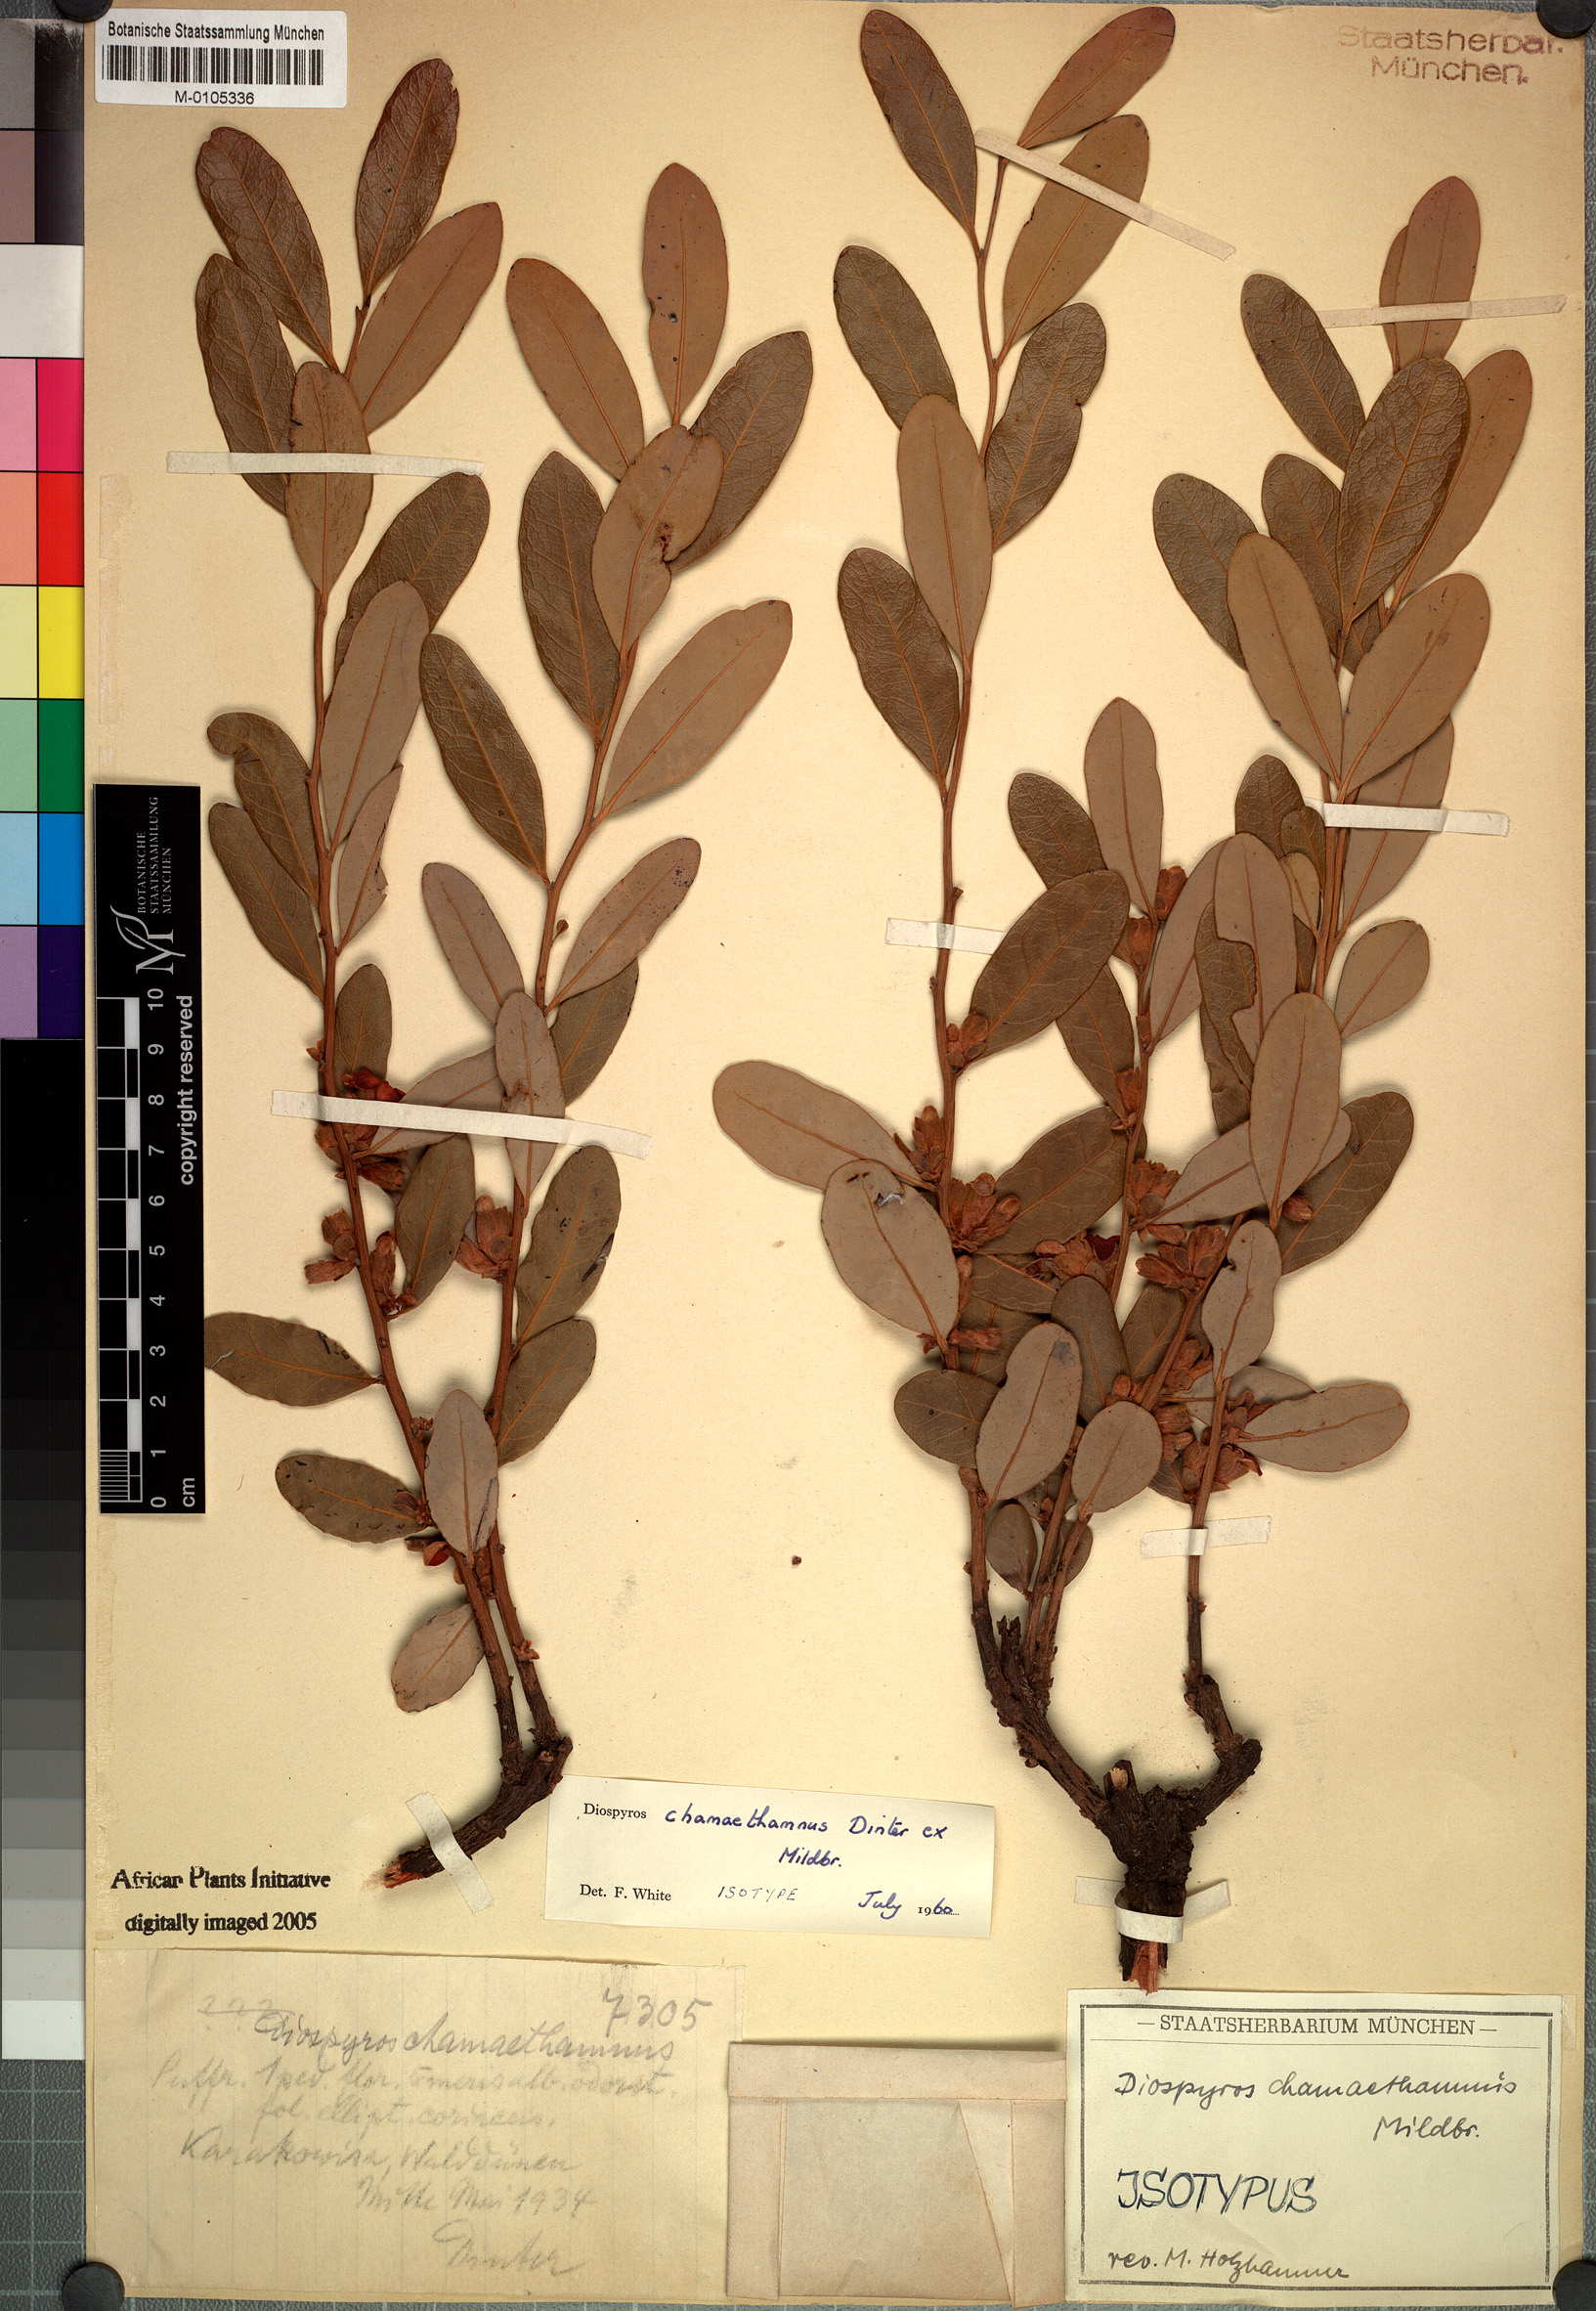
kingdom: Plantae
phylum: Tracheophyta
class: Magnoliopsida
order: Ericales
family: Ebenaceae
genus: Diospyros
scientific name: Diospyros chamaethamnus
